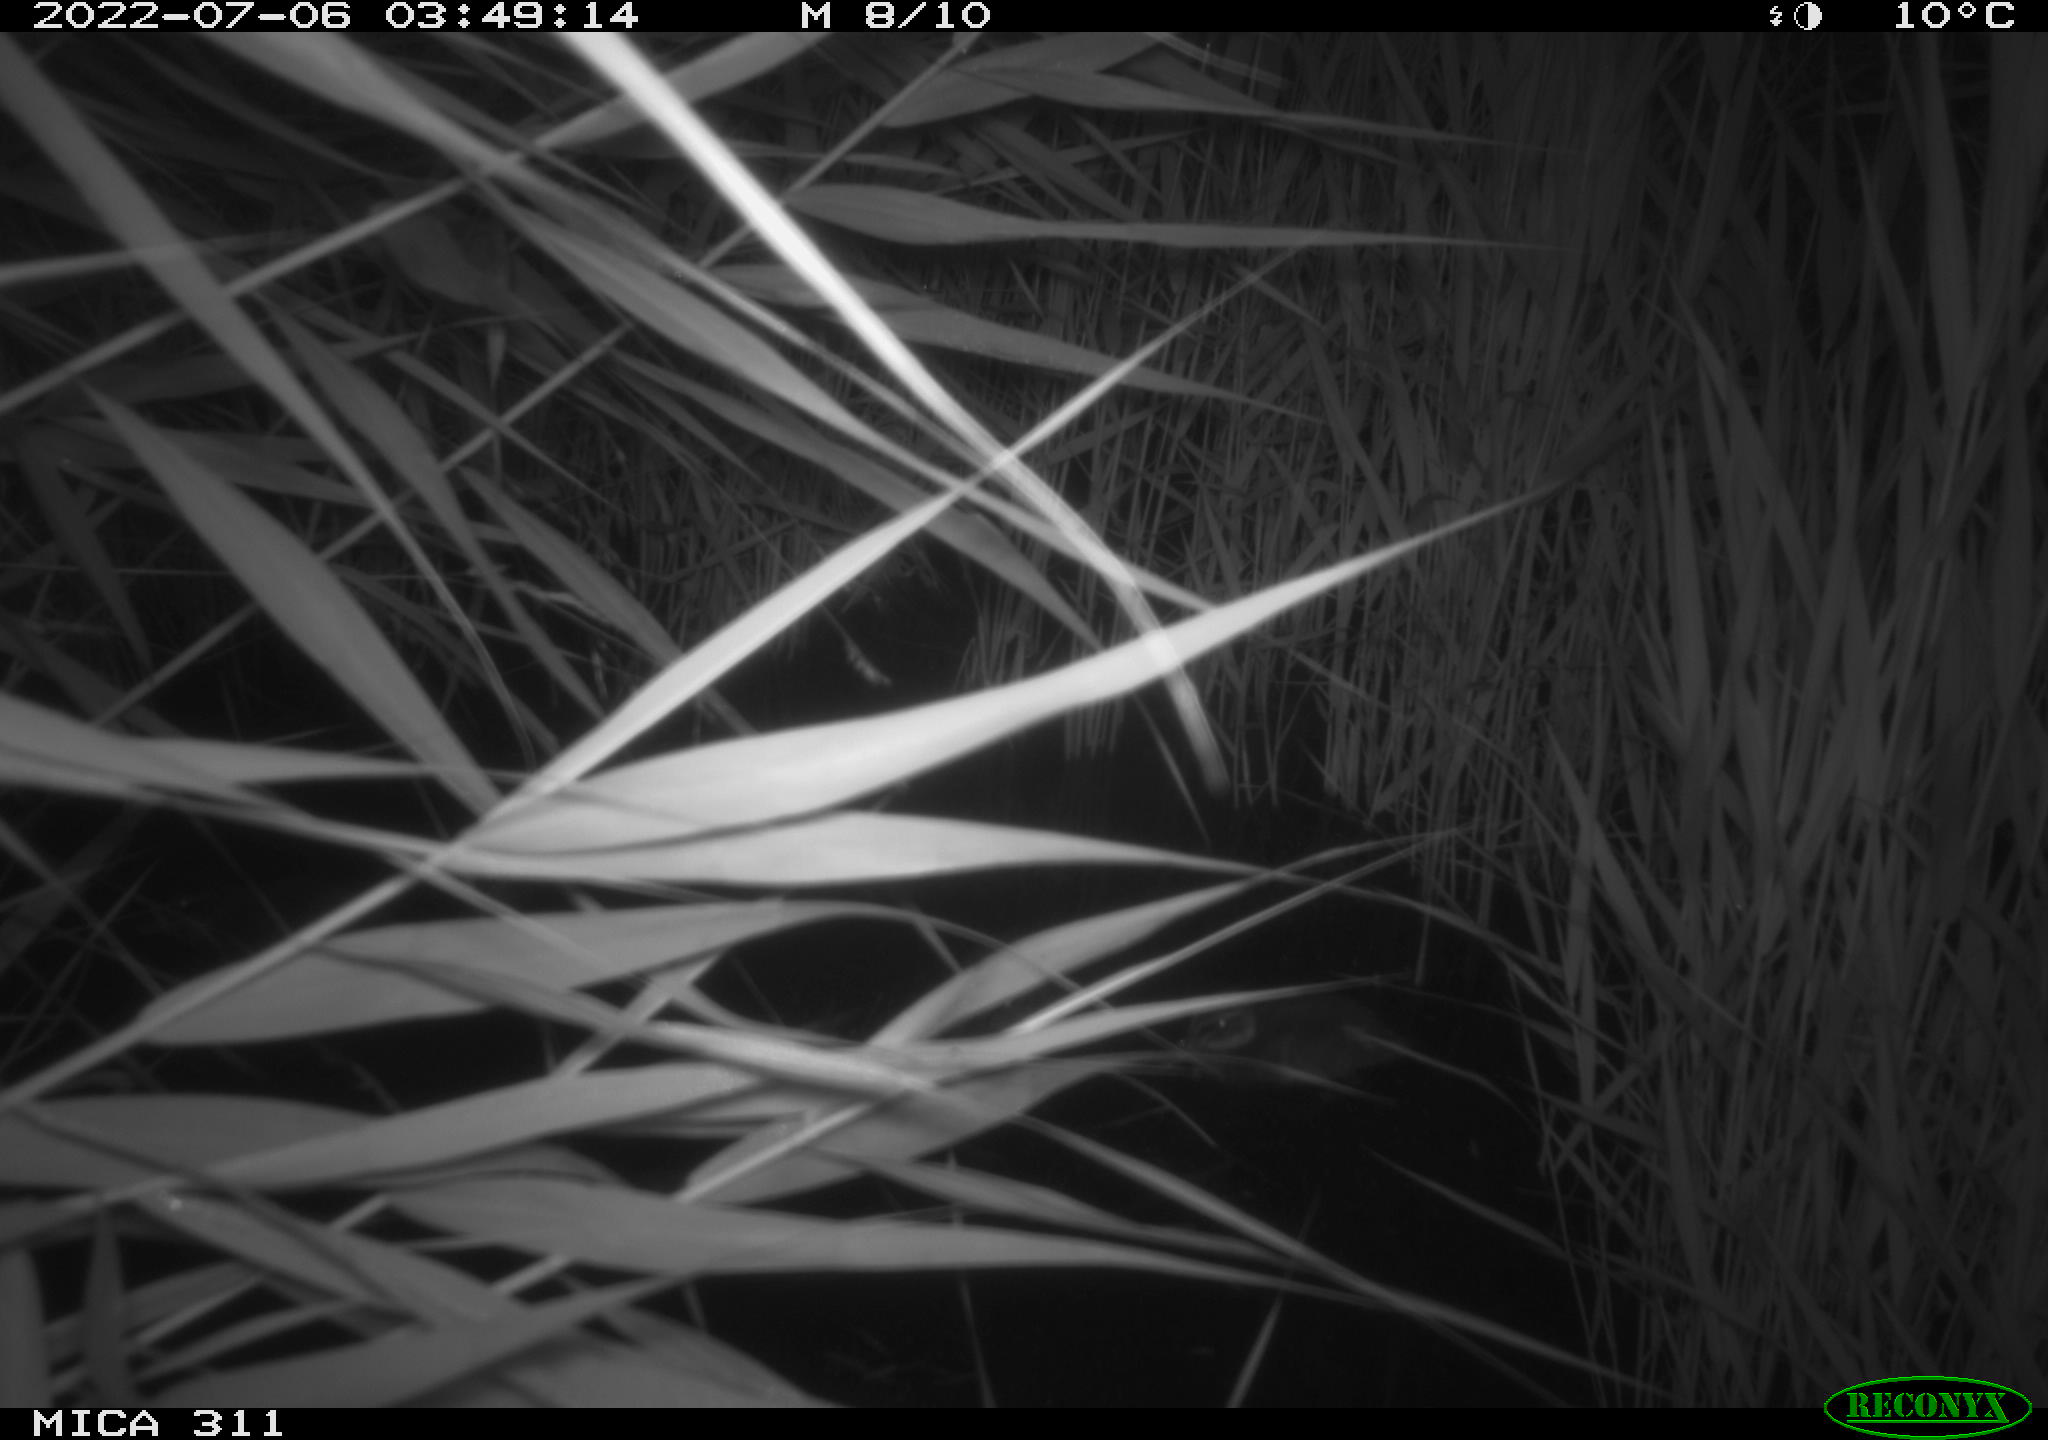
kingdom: Animalia
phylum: Chordata
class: Aves
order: Anseriformes
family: Anatidae
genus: Anas
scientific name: Anas platyrhynchos
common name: Mallard
